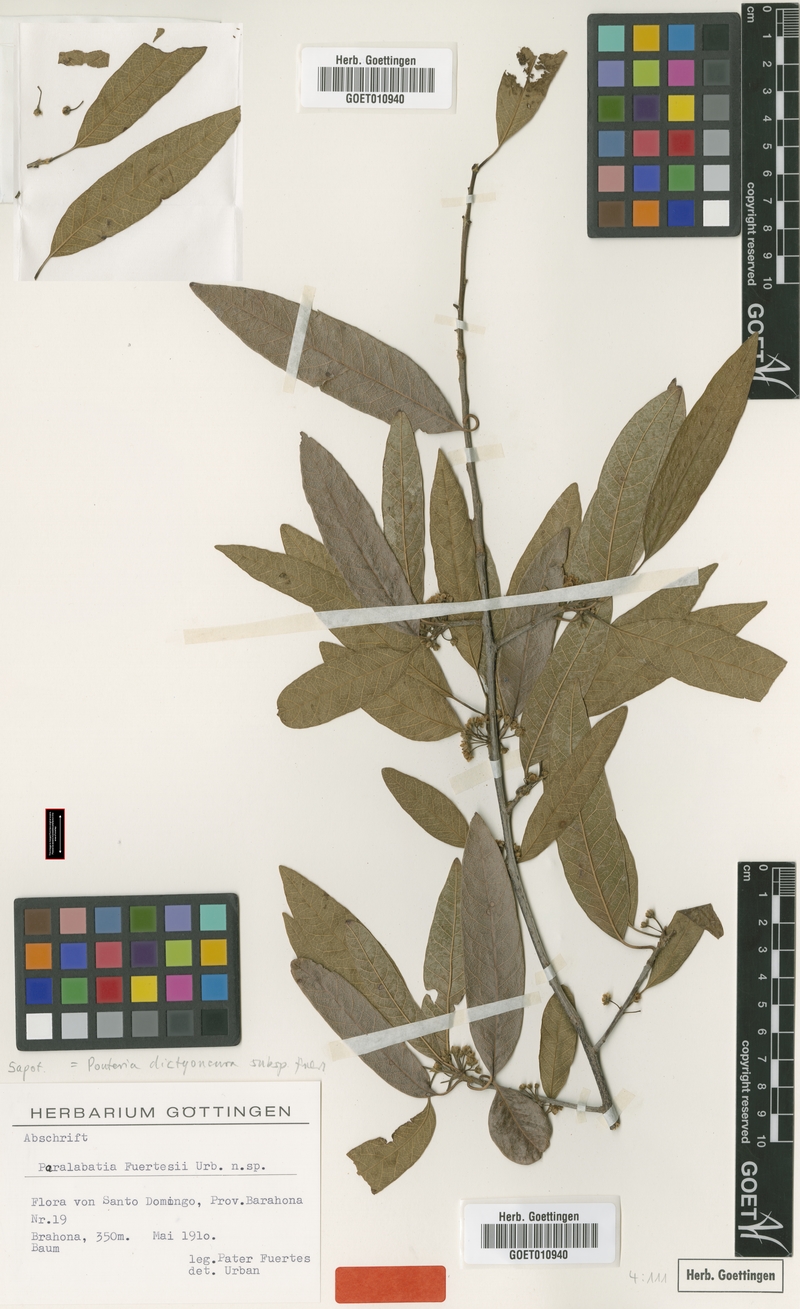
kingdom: Plantae
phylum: Tracheophyta
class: Magnoliopsida
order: Ericales
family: Sapotaceae
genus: Pouteria
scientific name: Pouteria dictyoneura
